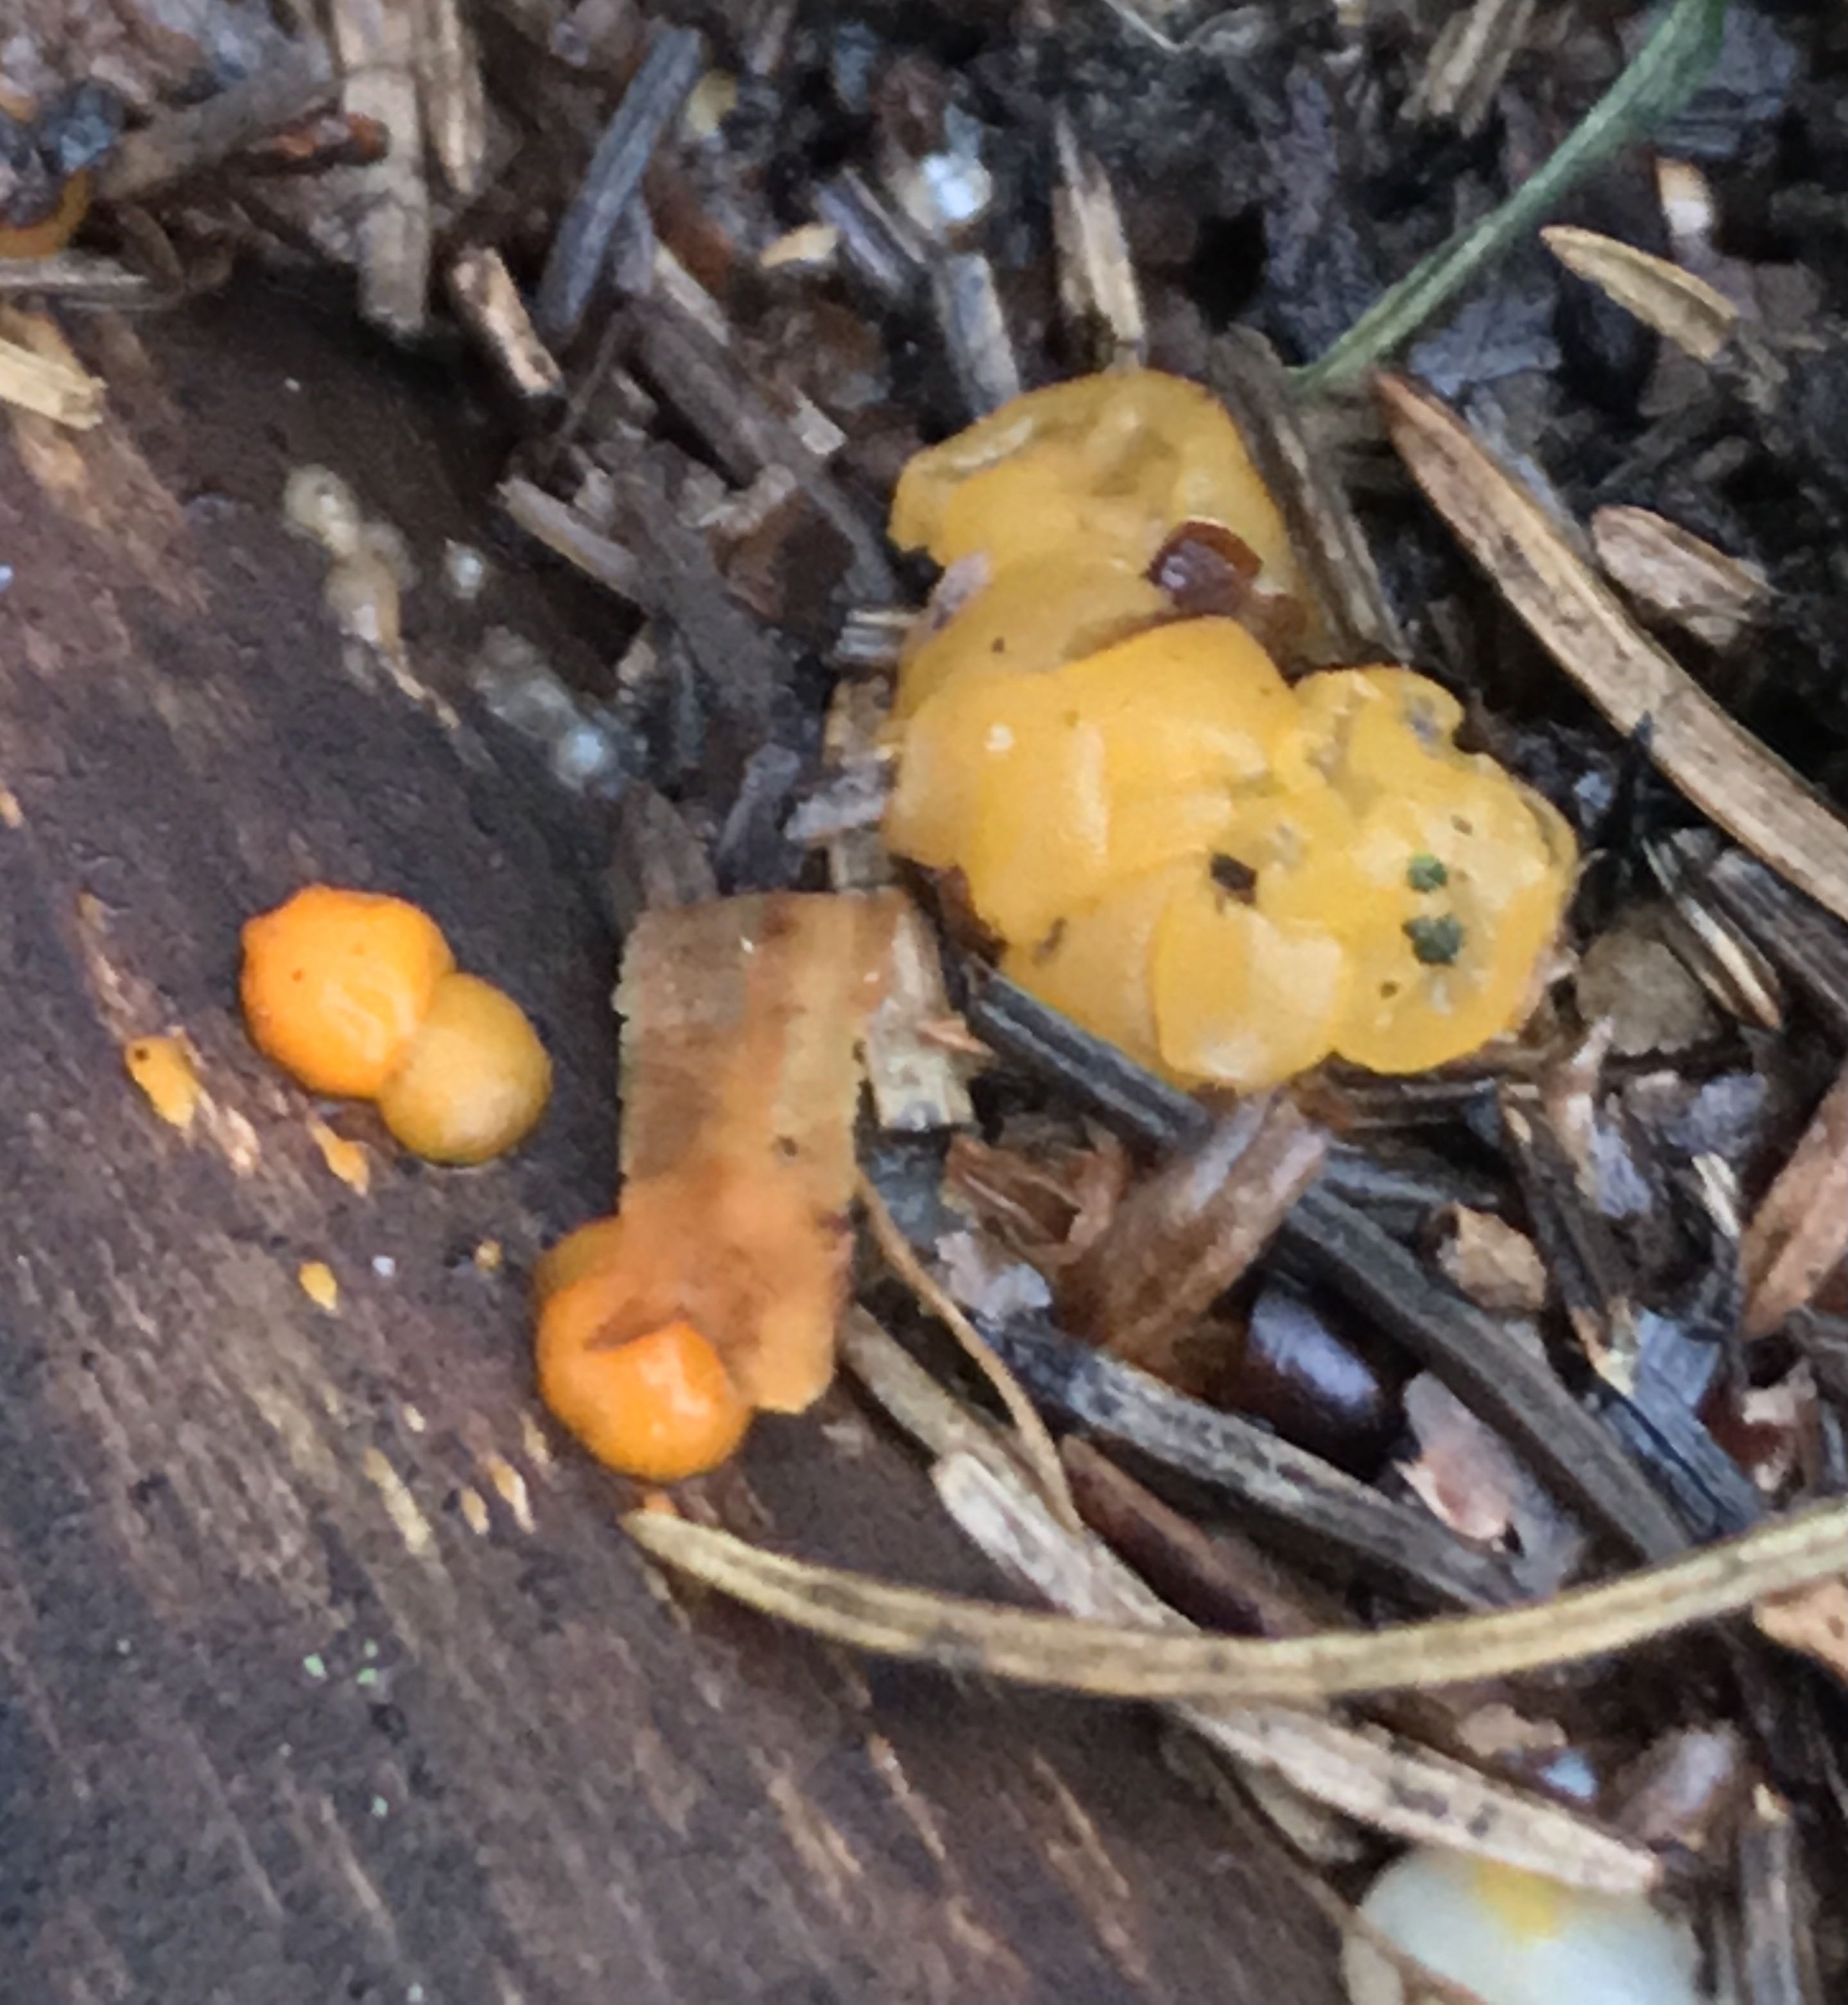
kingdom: Fungi
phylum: Basidiomycota
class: Dacrymycetes
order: Dacrymycetales
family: Dacrymycetaceae
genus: Dacrymyces
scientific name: Dacrymyces stillatus
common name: almindelig tåresvamp
